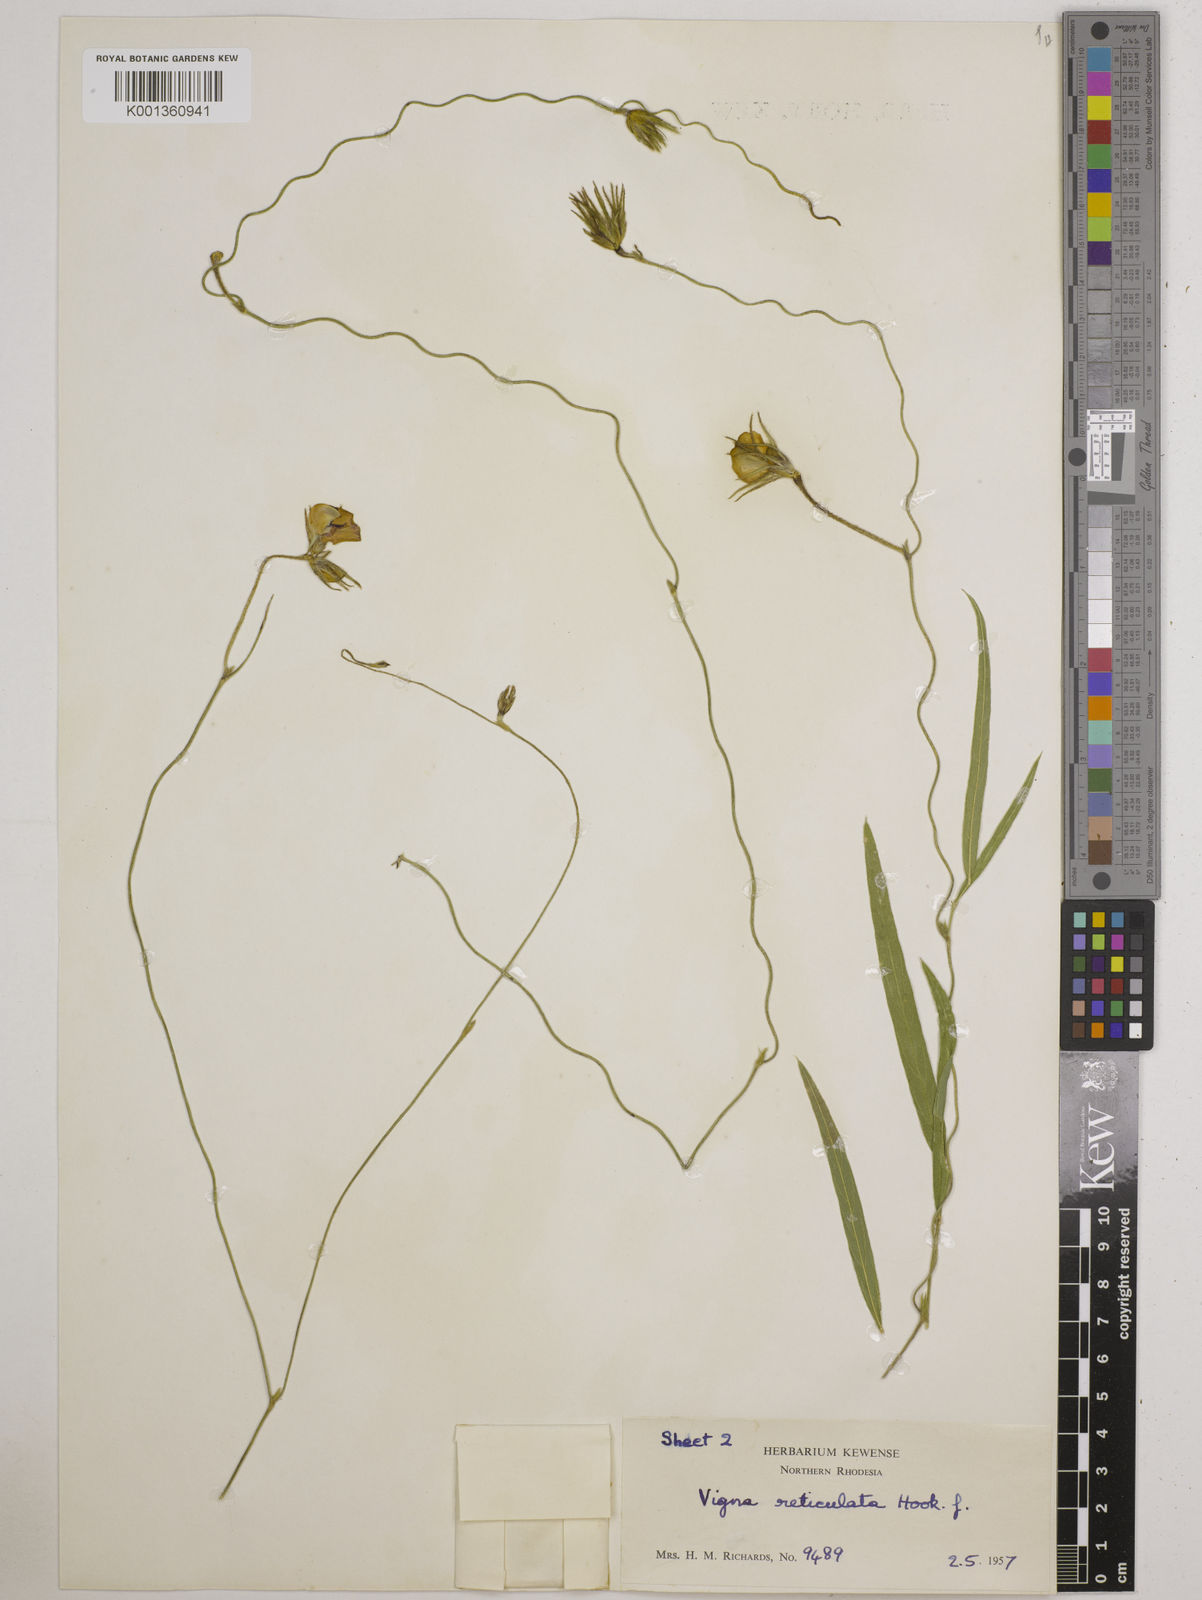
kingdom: Plantae
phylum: Tracheophyta
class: Magnoliopsida
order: Fabales
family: Fabaceae
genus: Vigna
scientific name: Vigna reticulata
